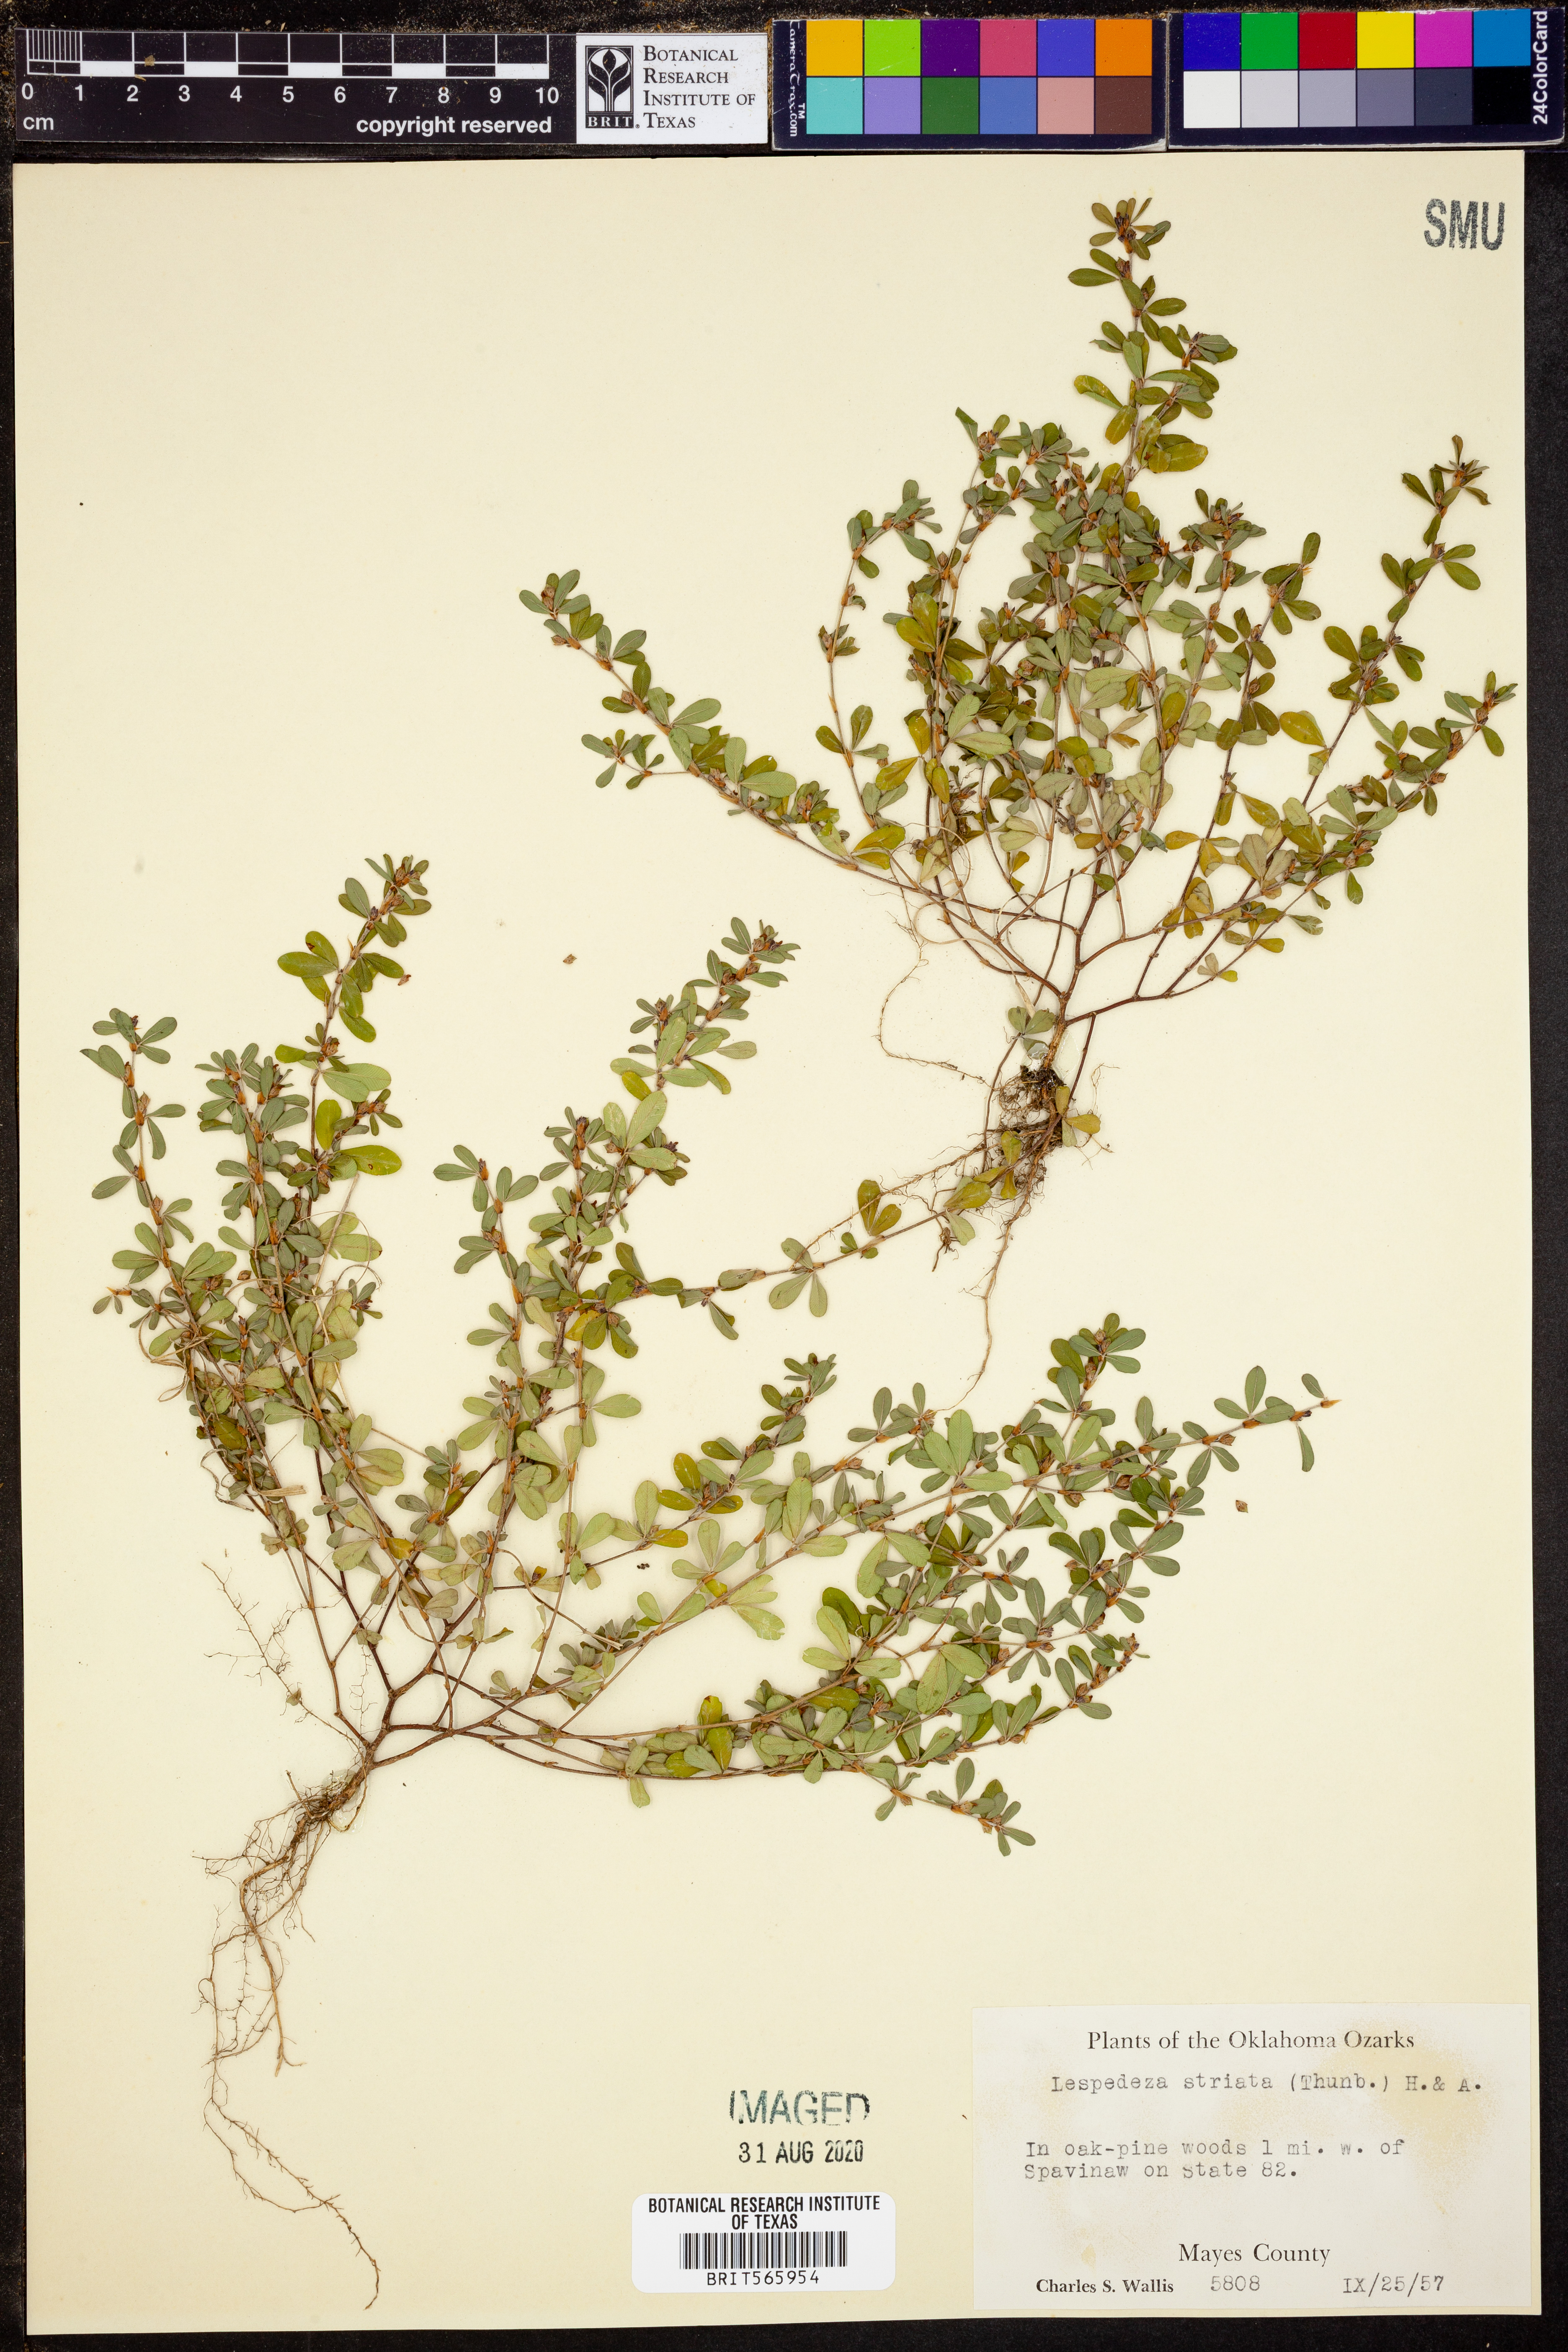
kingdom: Plantae
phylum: Tracheophyta
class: Magnoliopsida
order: Fabales
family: Fabaceae
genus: Kummerowia
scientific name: Kummerowia striata
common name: Japanese clover
